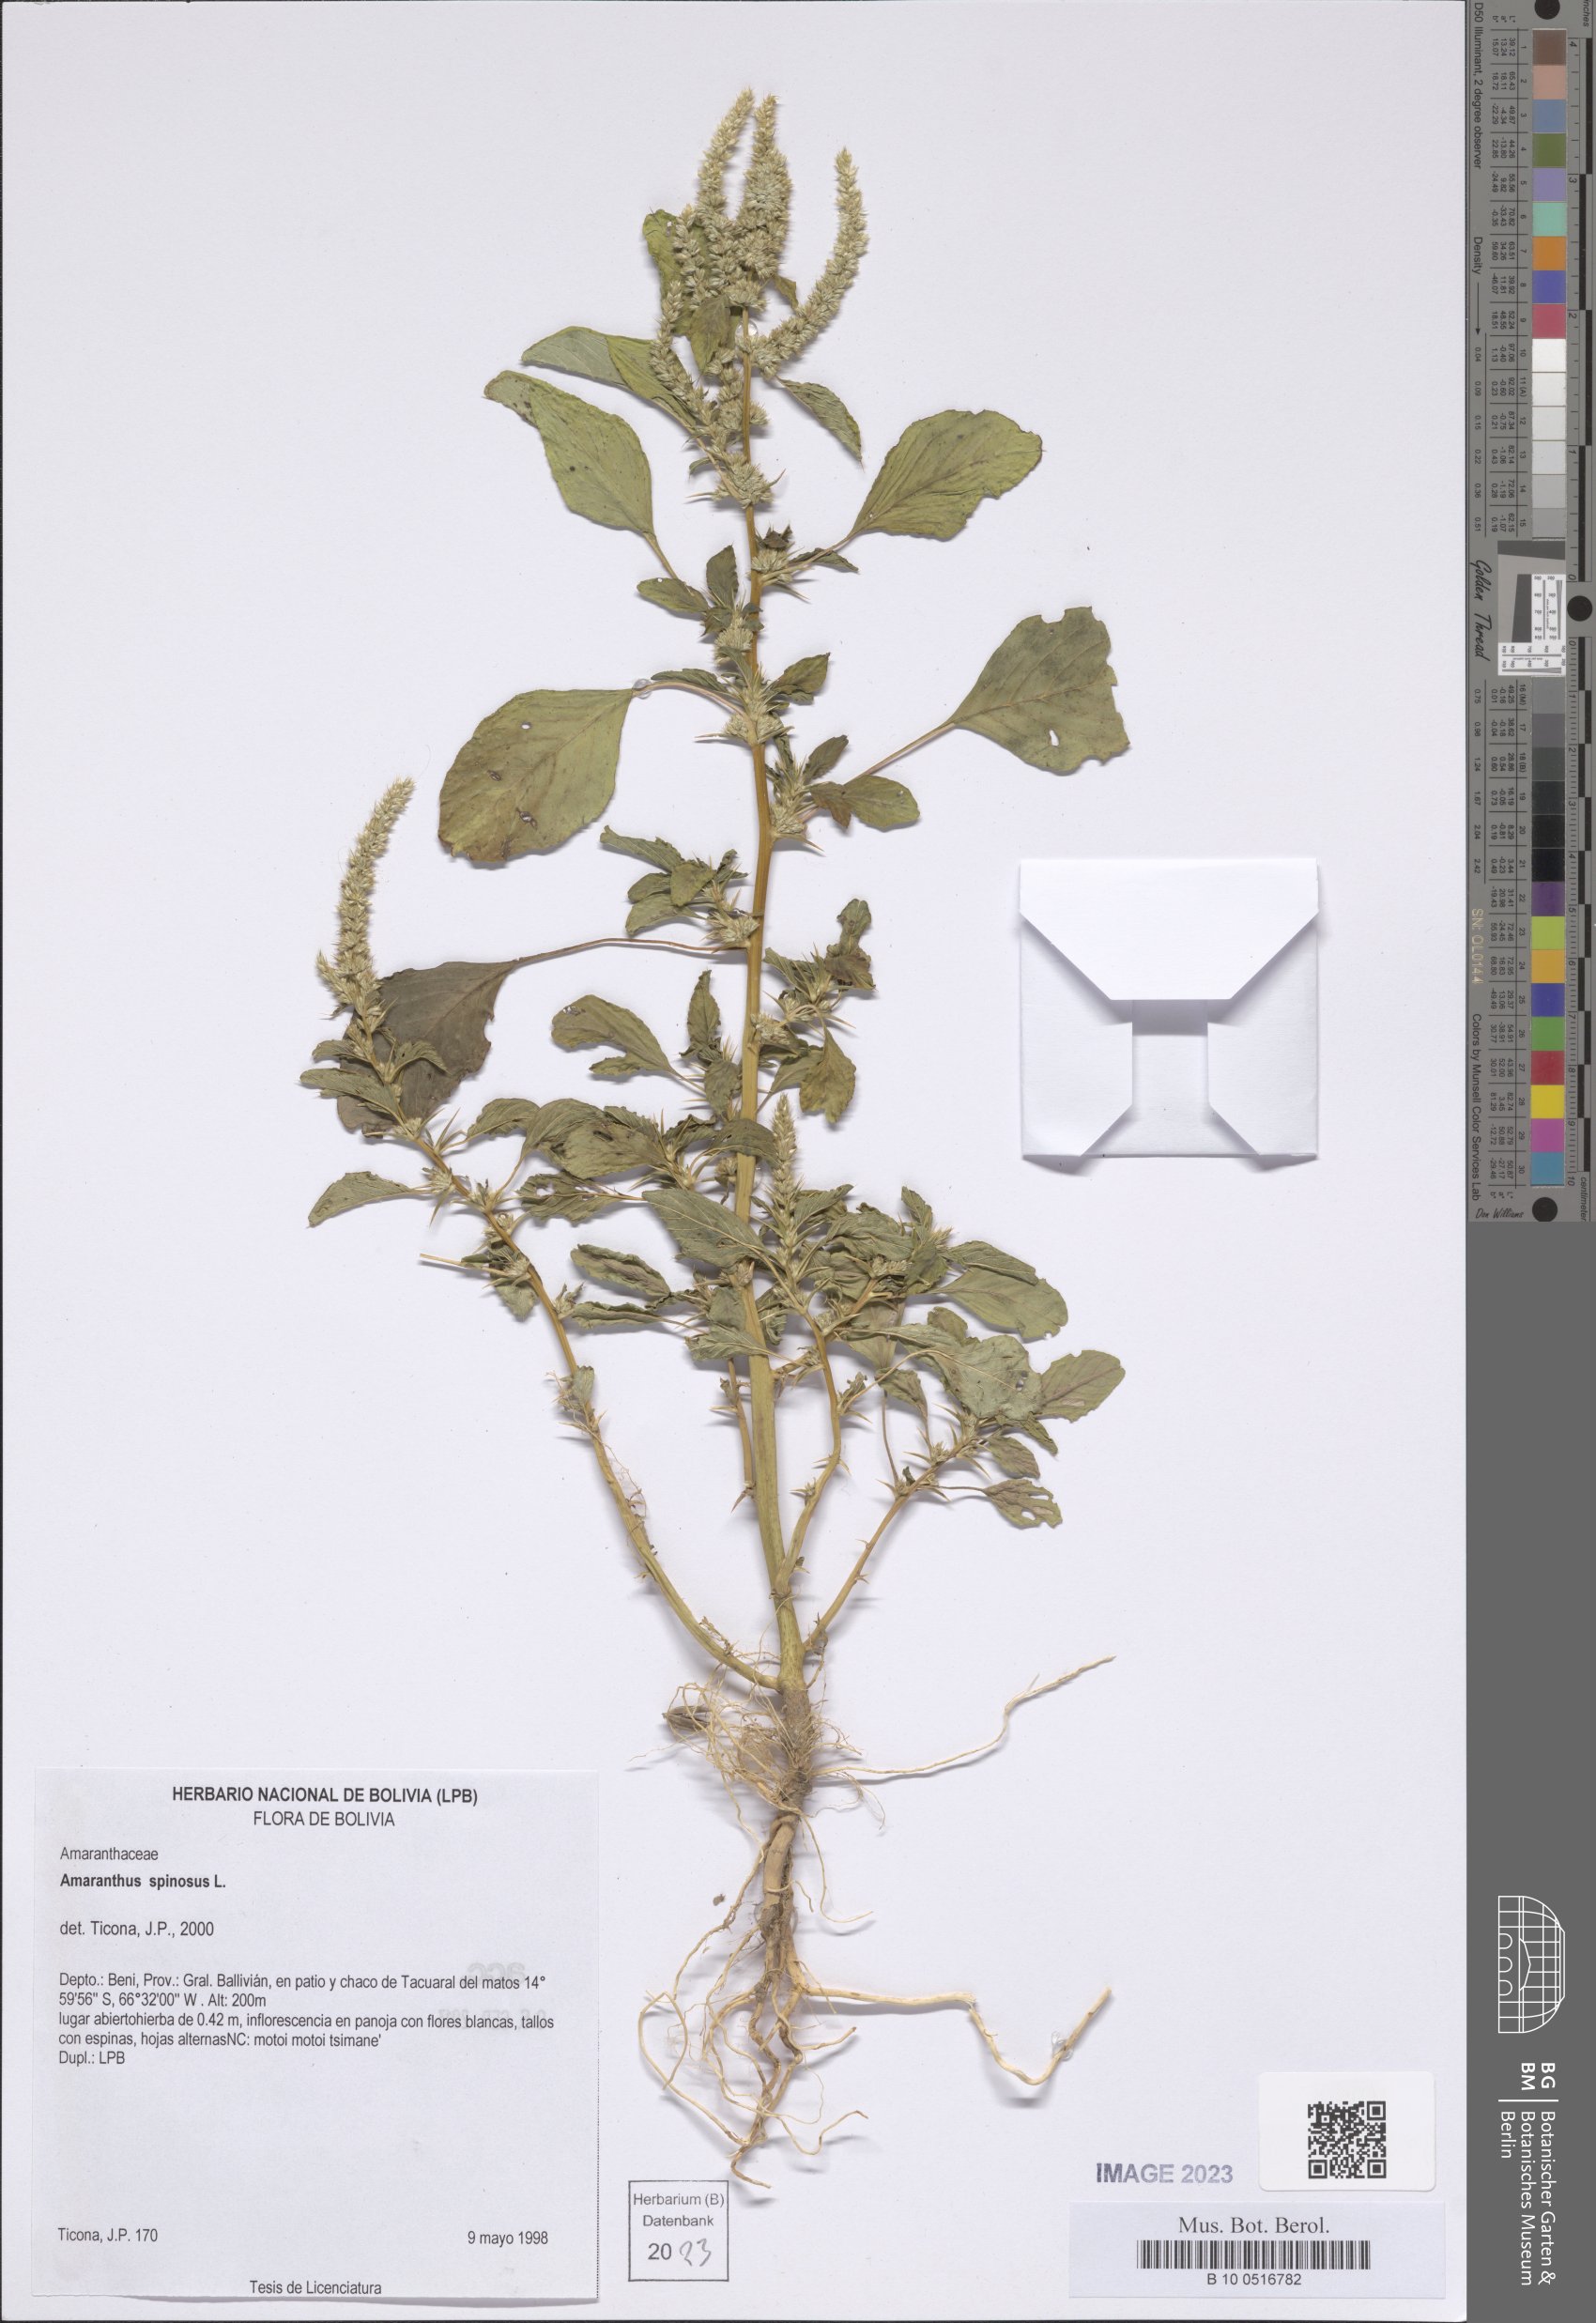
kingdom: Plantae
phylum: Tracheophyta
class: Magnoliopsida
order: Caryophyllales
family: Amaranthaceae
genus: Amaranthus
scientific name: Amaranthus spinosus
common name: Spiny amaranth
